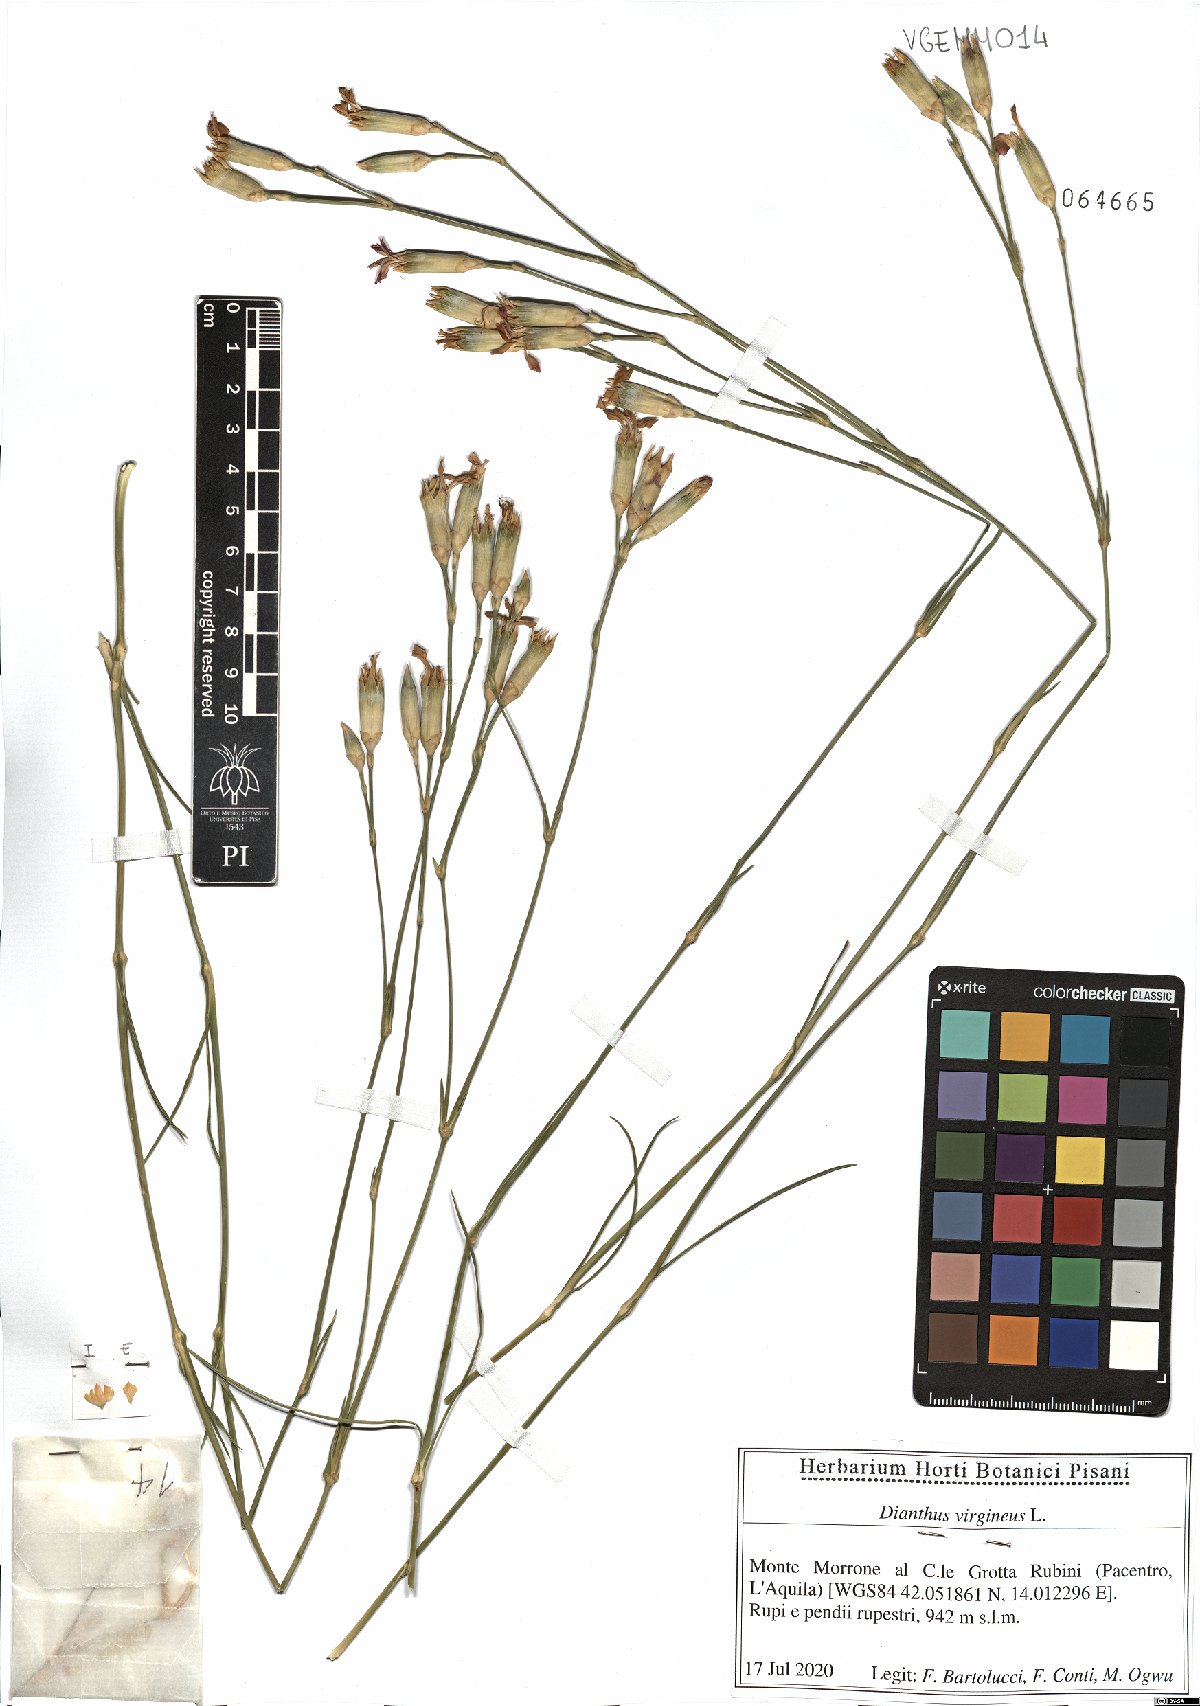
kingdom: Plantae
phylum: Tracheophyta
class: Magnoliopsida
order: Caryophyllales
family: Caryophyllaceae
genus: Dianthus
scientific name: Dianthus virgineus
